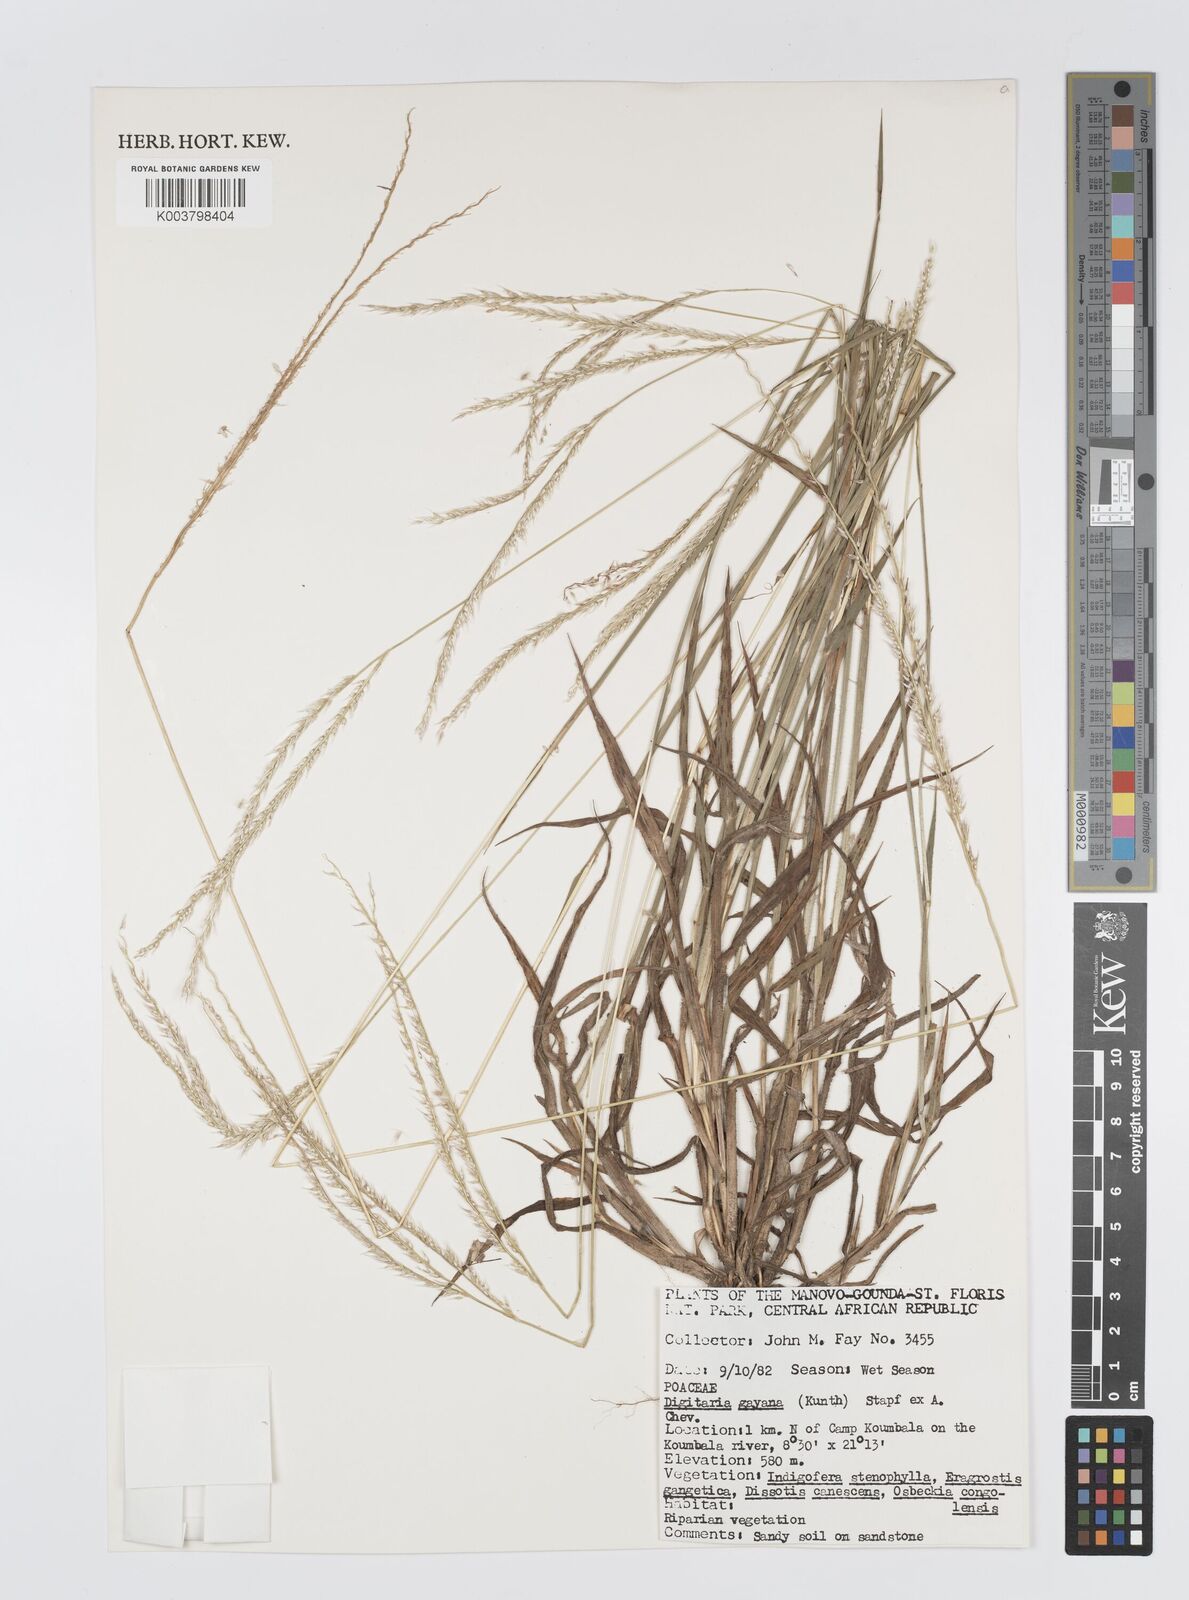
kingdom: Plantae
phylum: Tracheophyta
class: Liliopsida
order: Poales
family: Poaceae
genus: Digitaria
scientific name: Digitaria gayana
